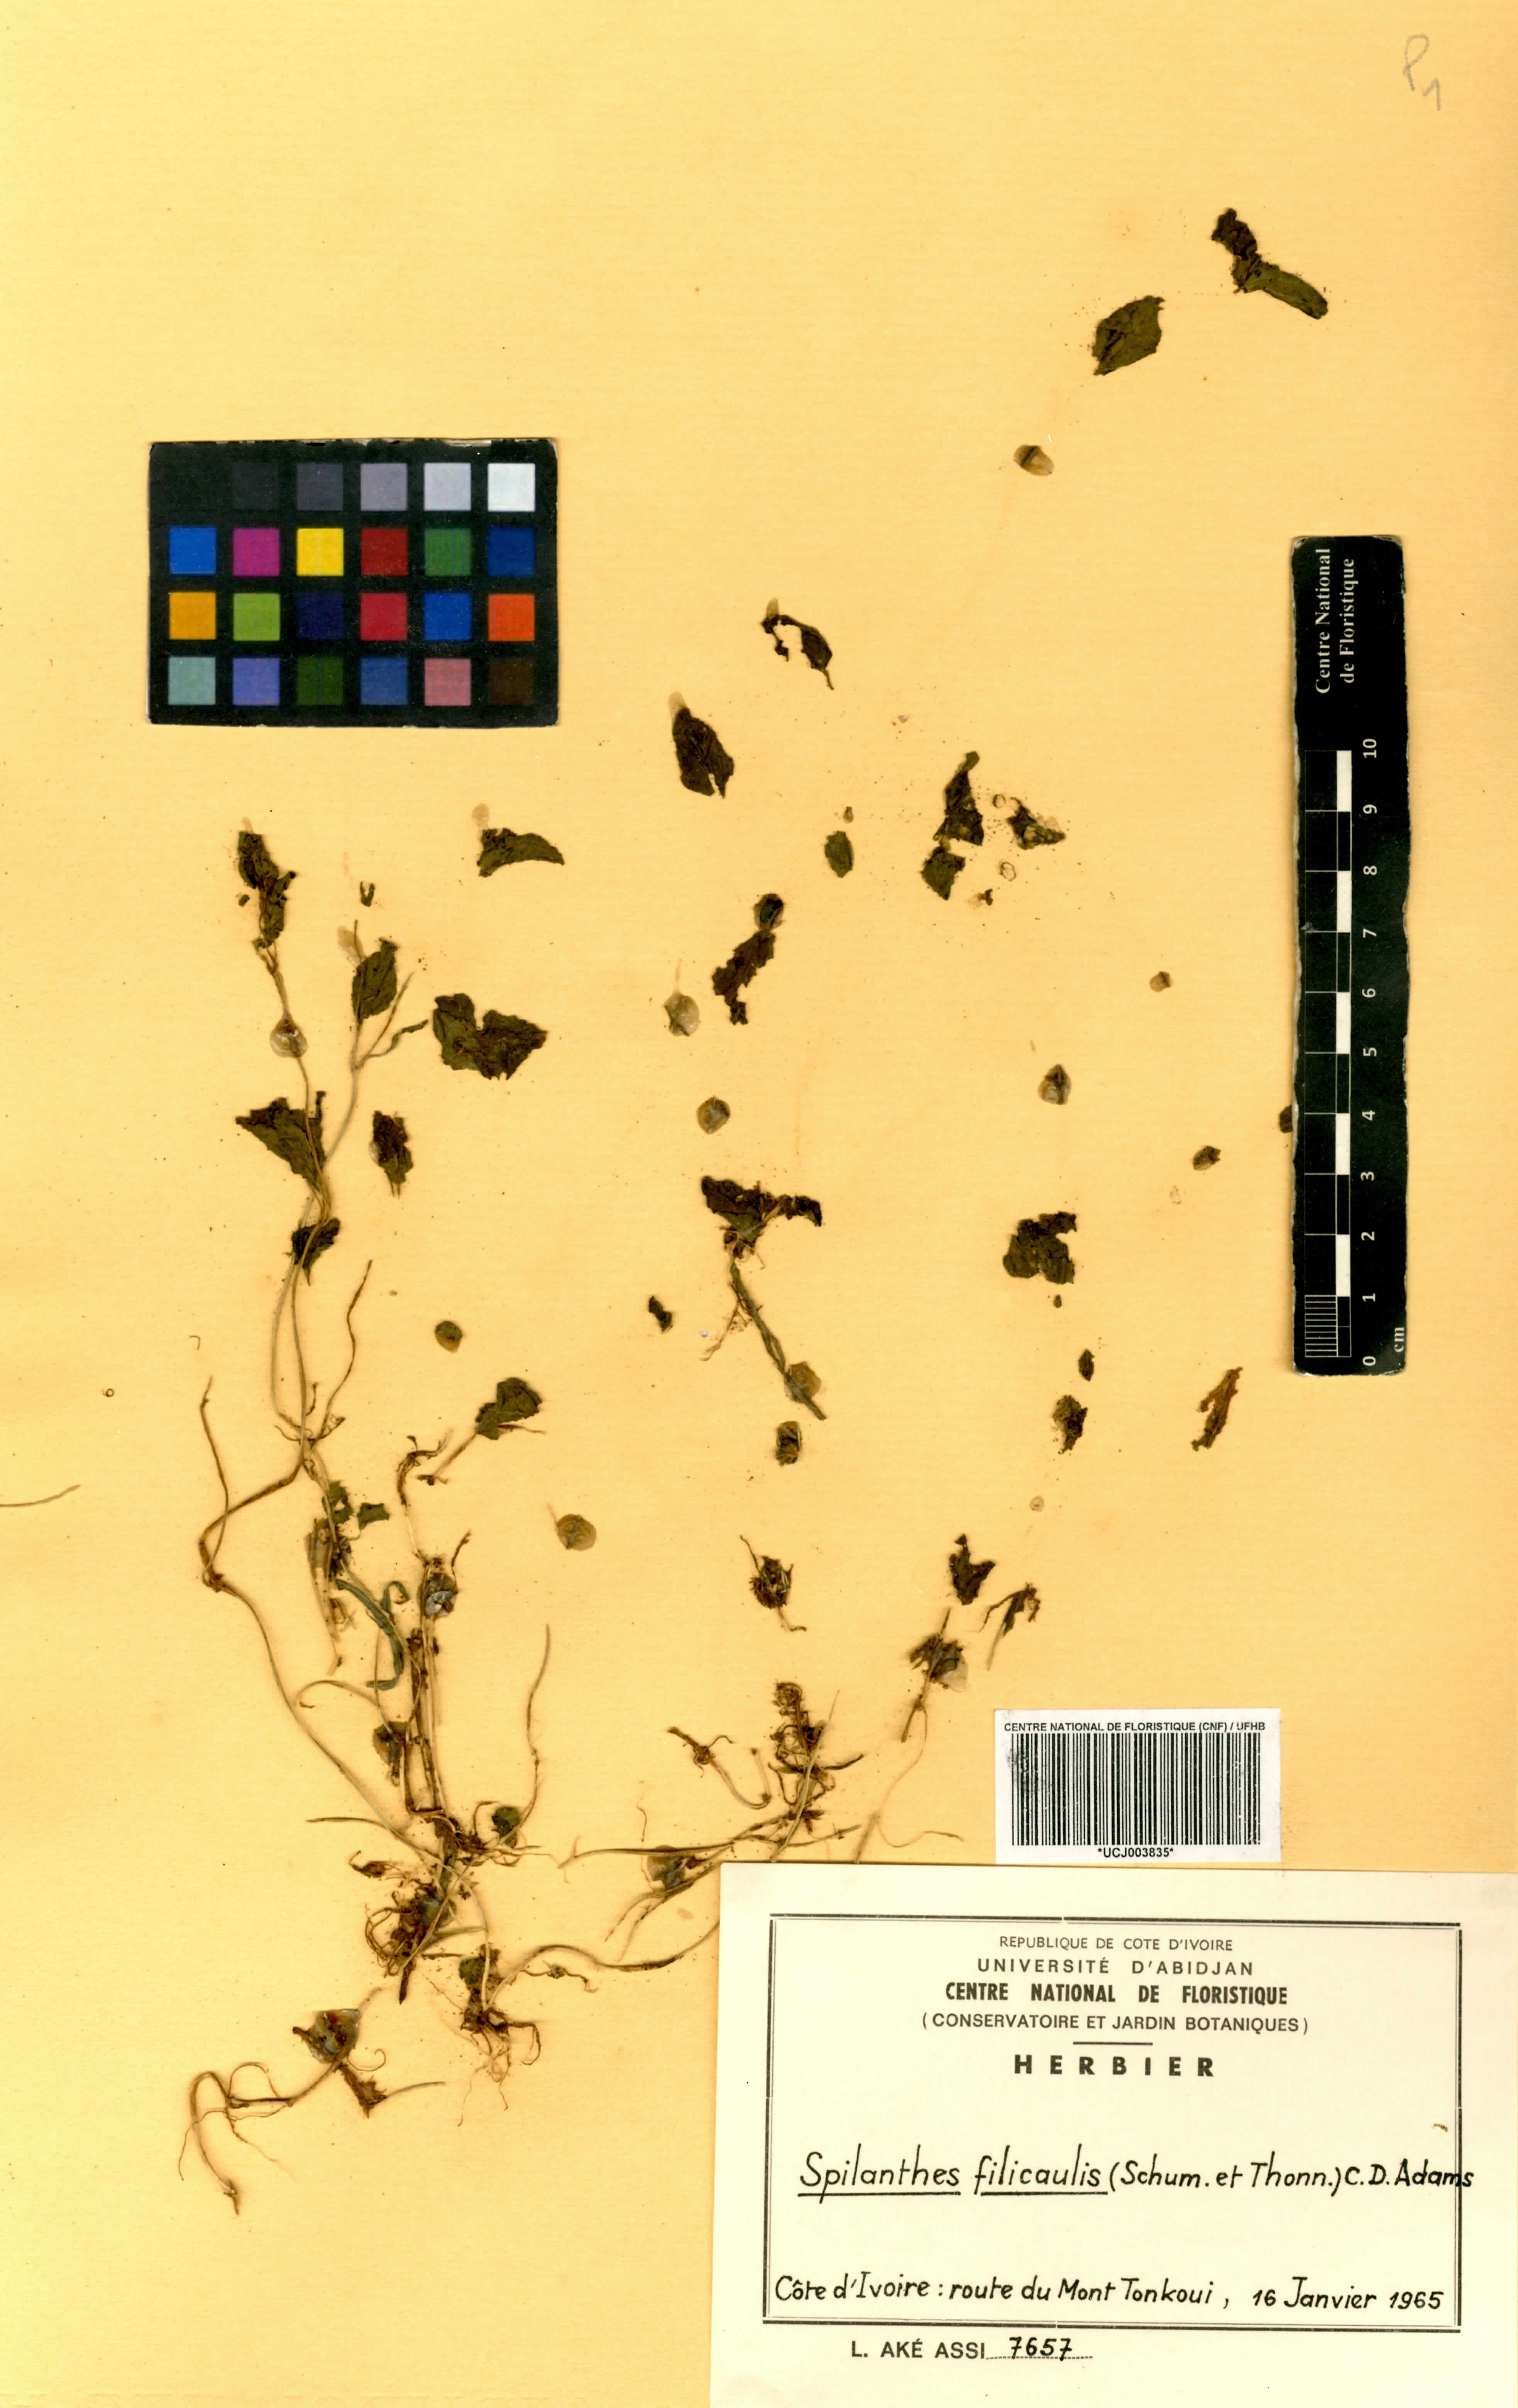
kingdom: Plantae
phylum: Tracheophyta
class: Magnoliopsida
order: Asterales
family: Asteraceae
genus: Acmella
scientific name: Acmella caulirhiza
